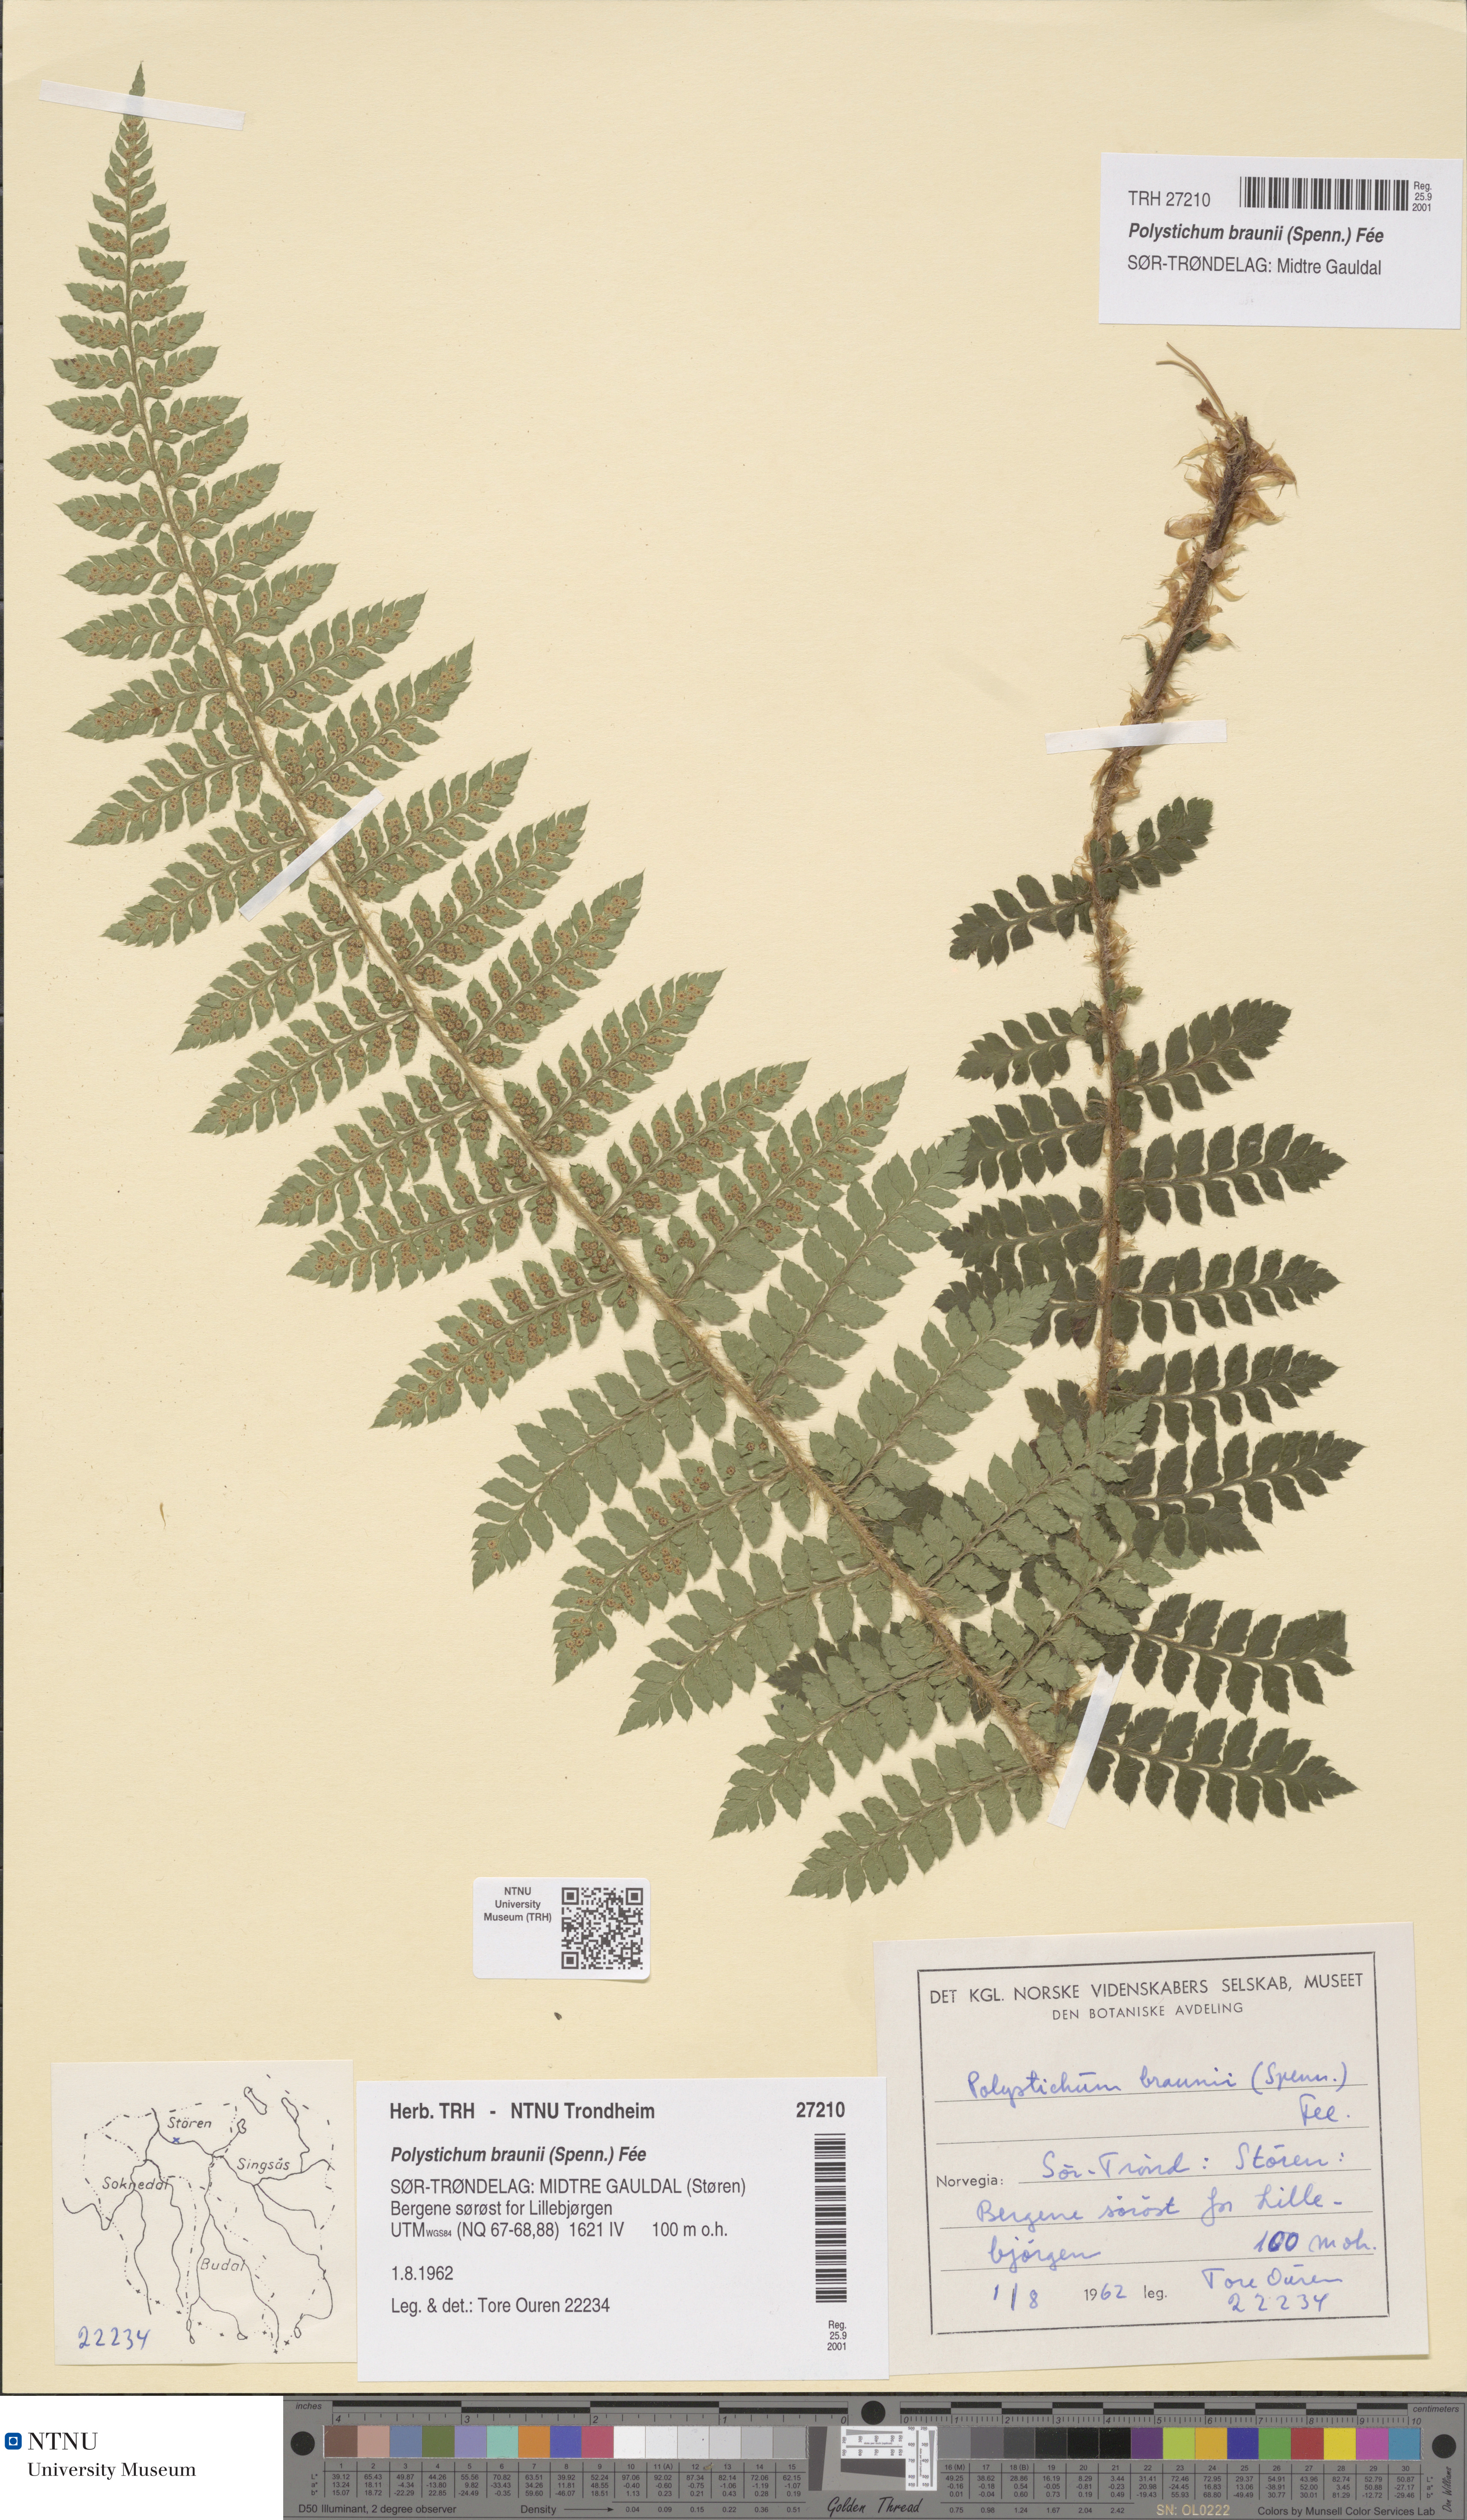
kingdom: Plantae
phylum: Tracheophyta
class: Polypodiopsida
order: Polypodiales
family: Dryopteridaceae
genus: Polystichum
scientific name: Polystichum braunii
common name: Braun's holly fern
